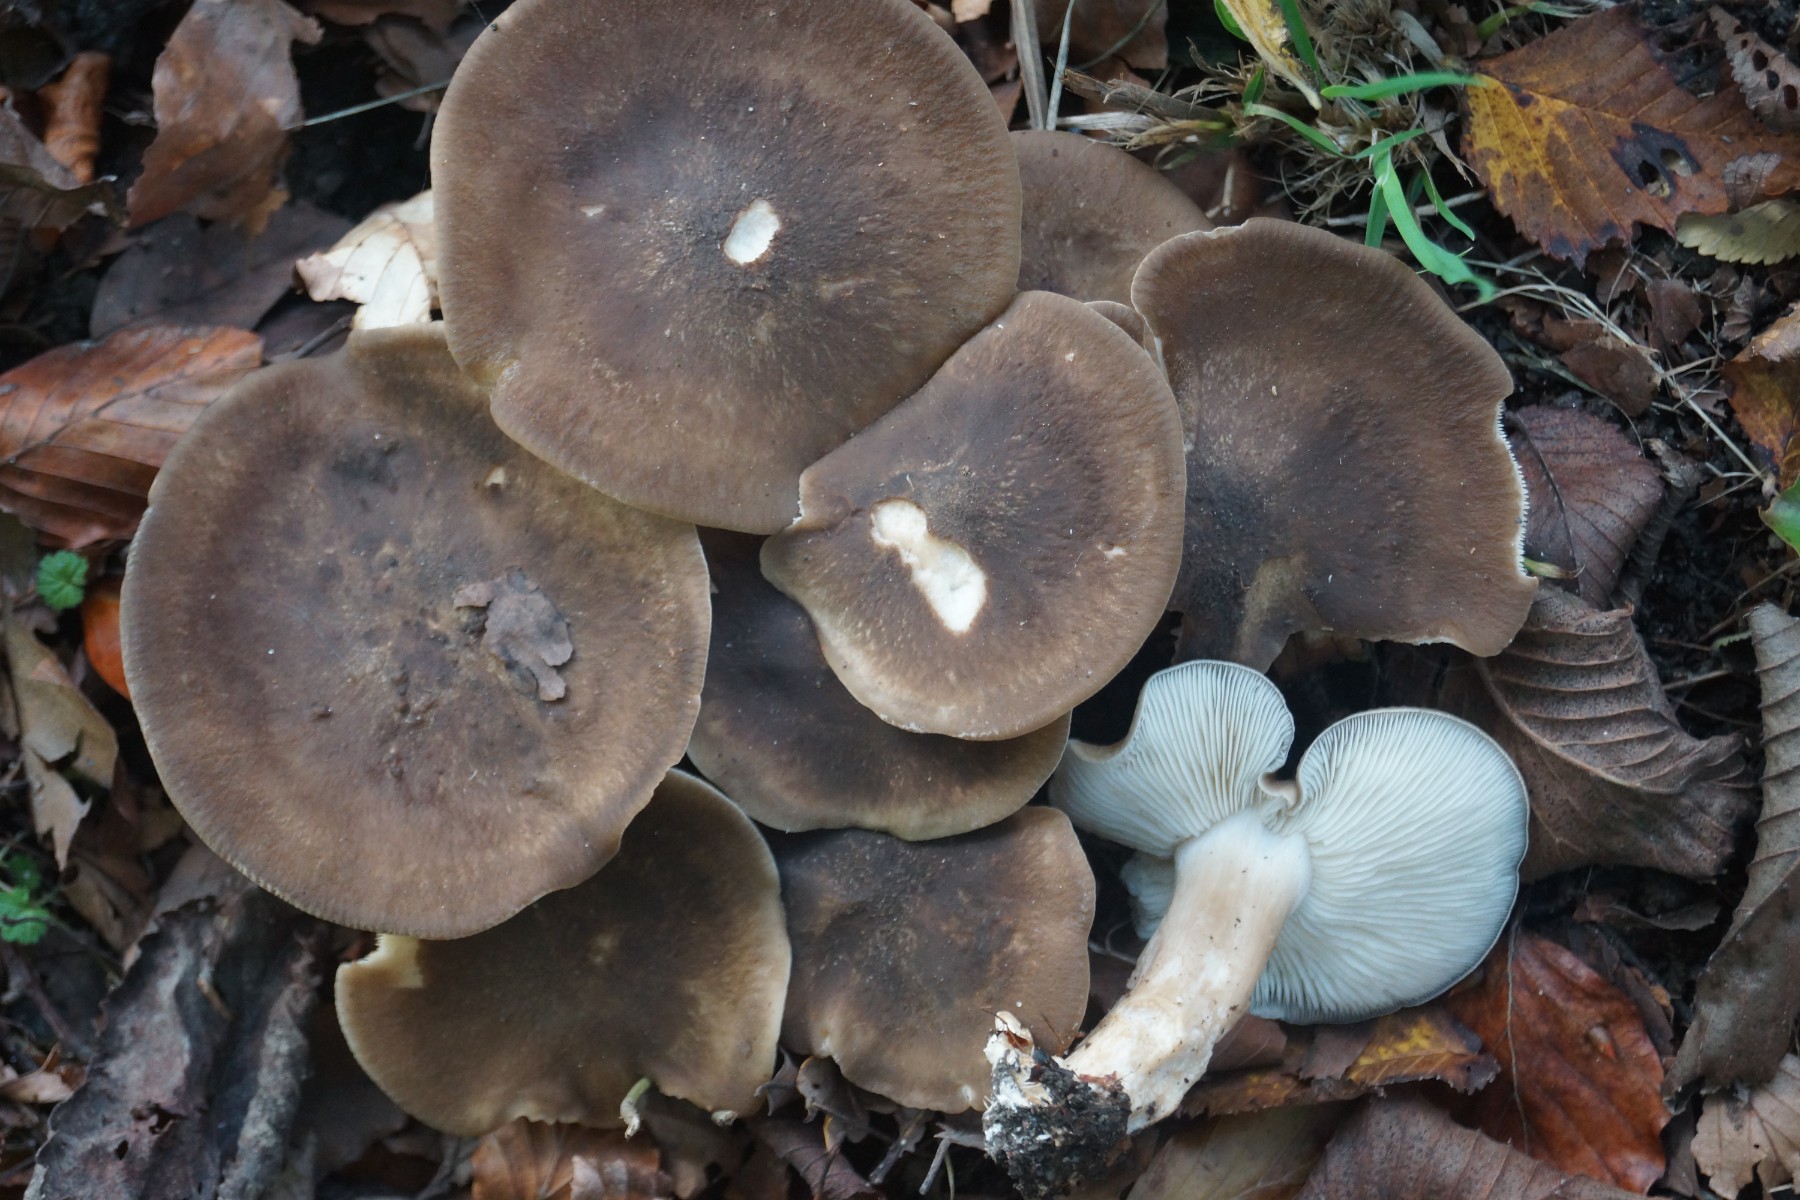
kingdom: Fungi
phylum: Basidiomycota
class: Agaricomycetes
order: Agaricales
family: Lyophyllaceae
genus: Lyophyllum
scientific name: Lyophyllum decastes
